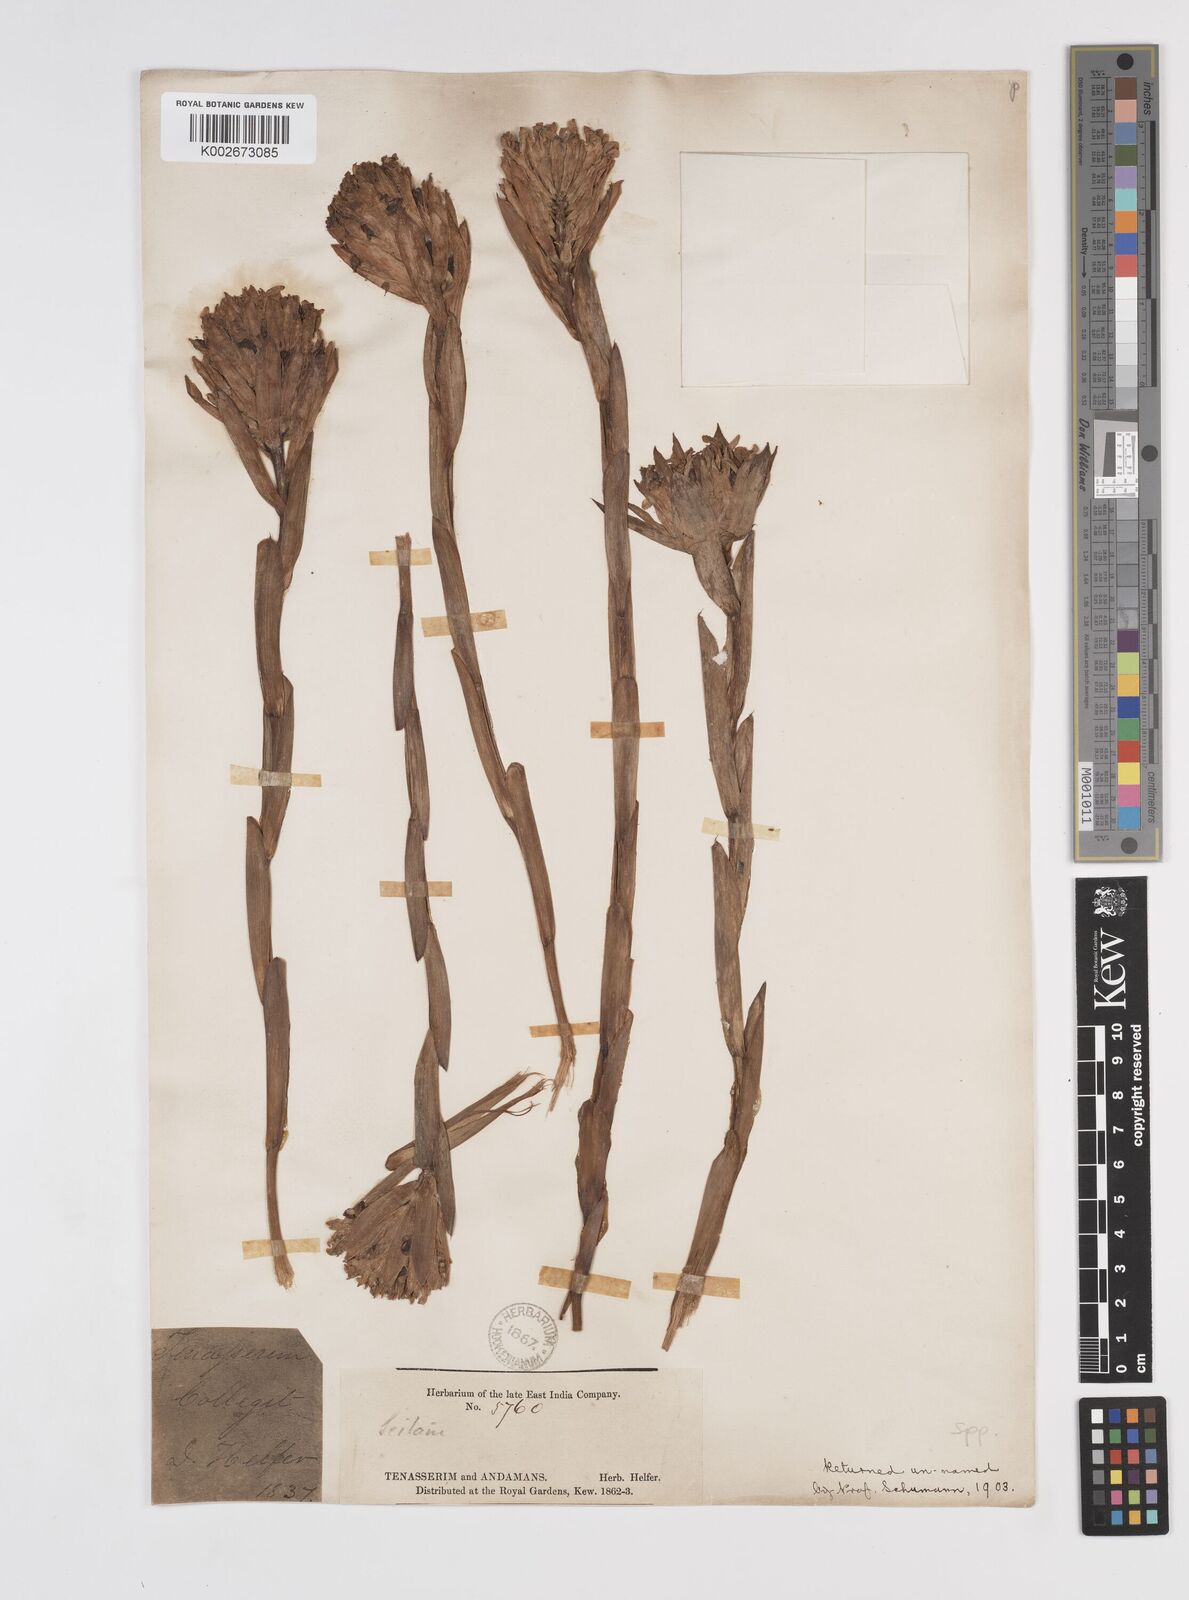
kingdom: Plantae
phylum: Tracheophyta
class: Liliopsida
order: Zingiberales
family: Zingiberaceae
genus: Amomum
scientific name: Amomum
